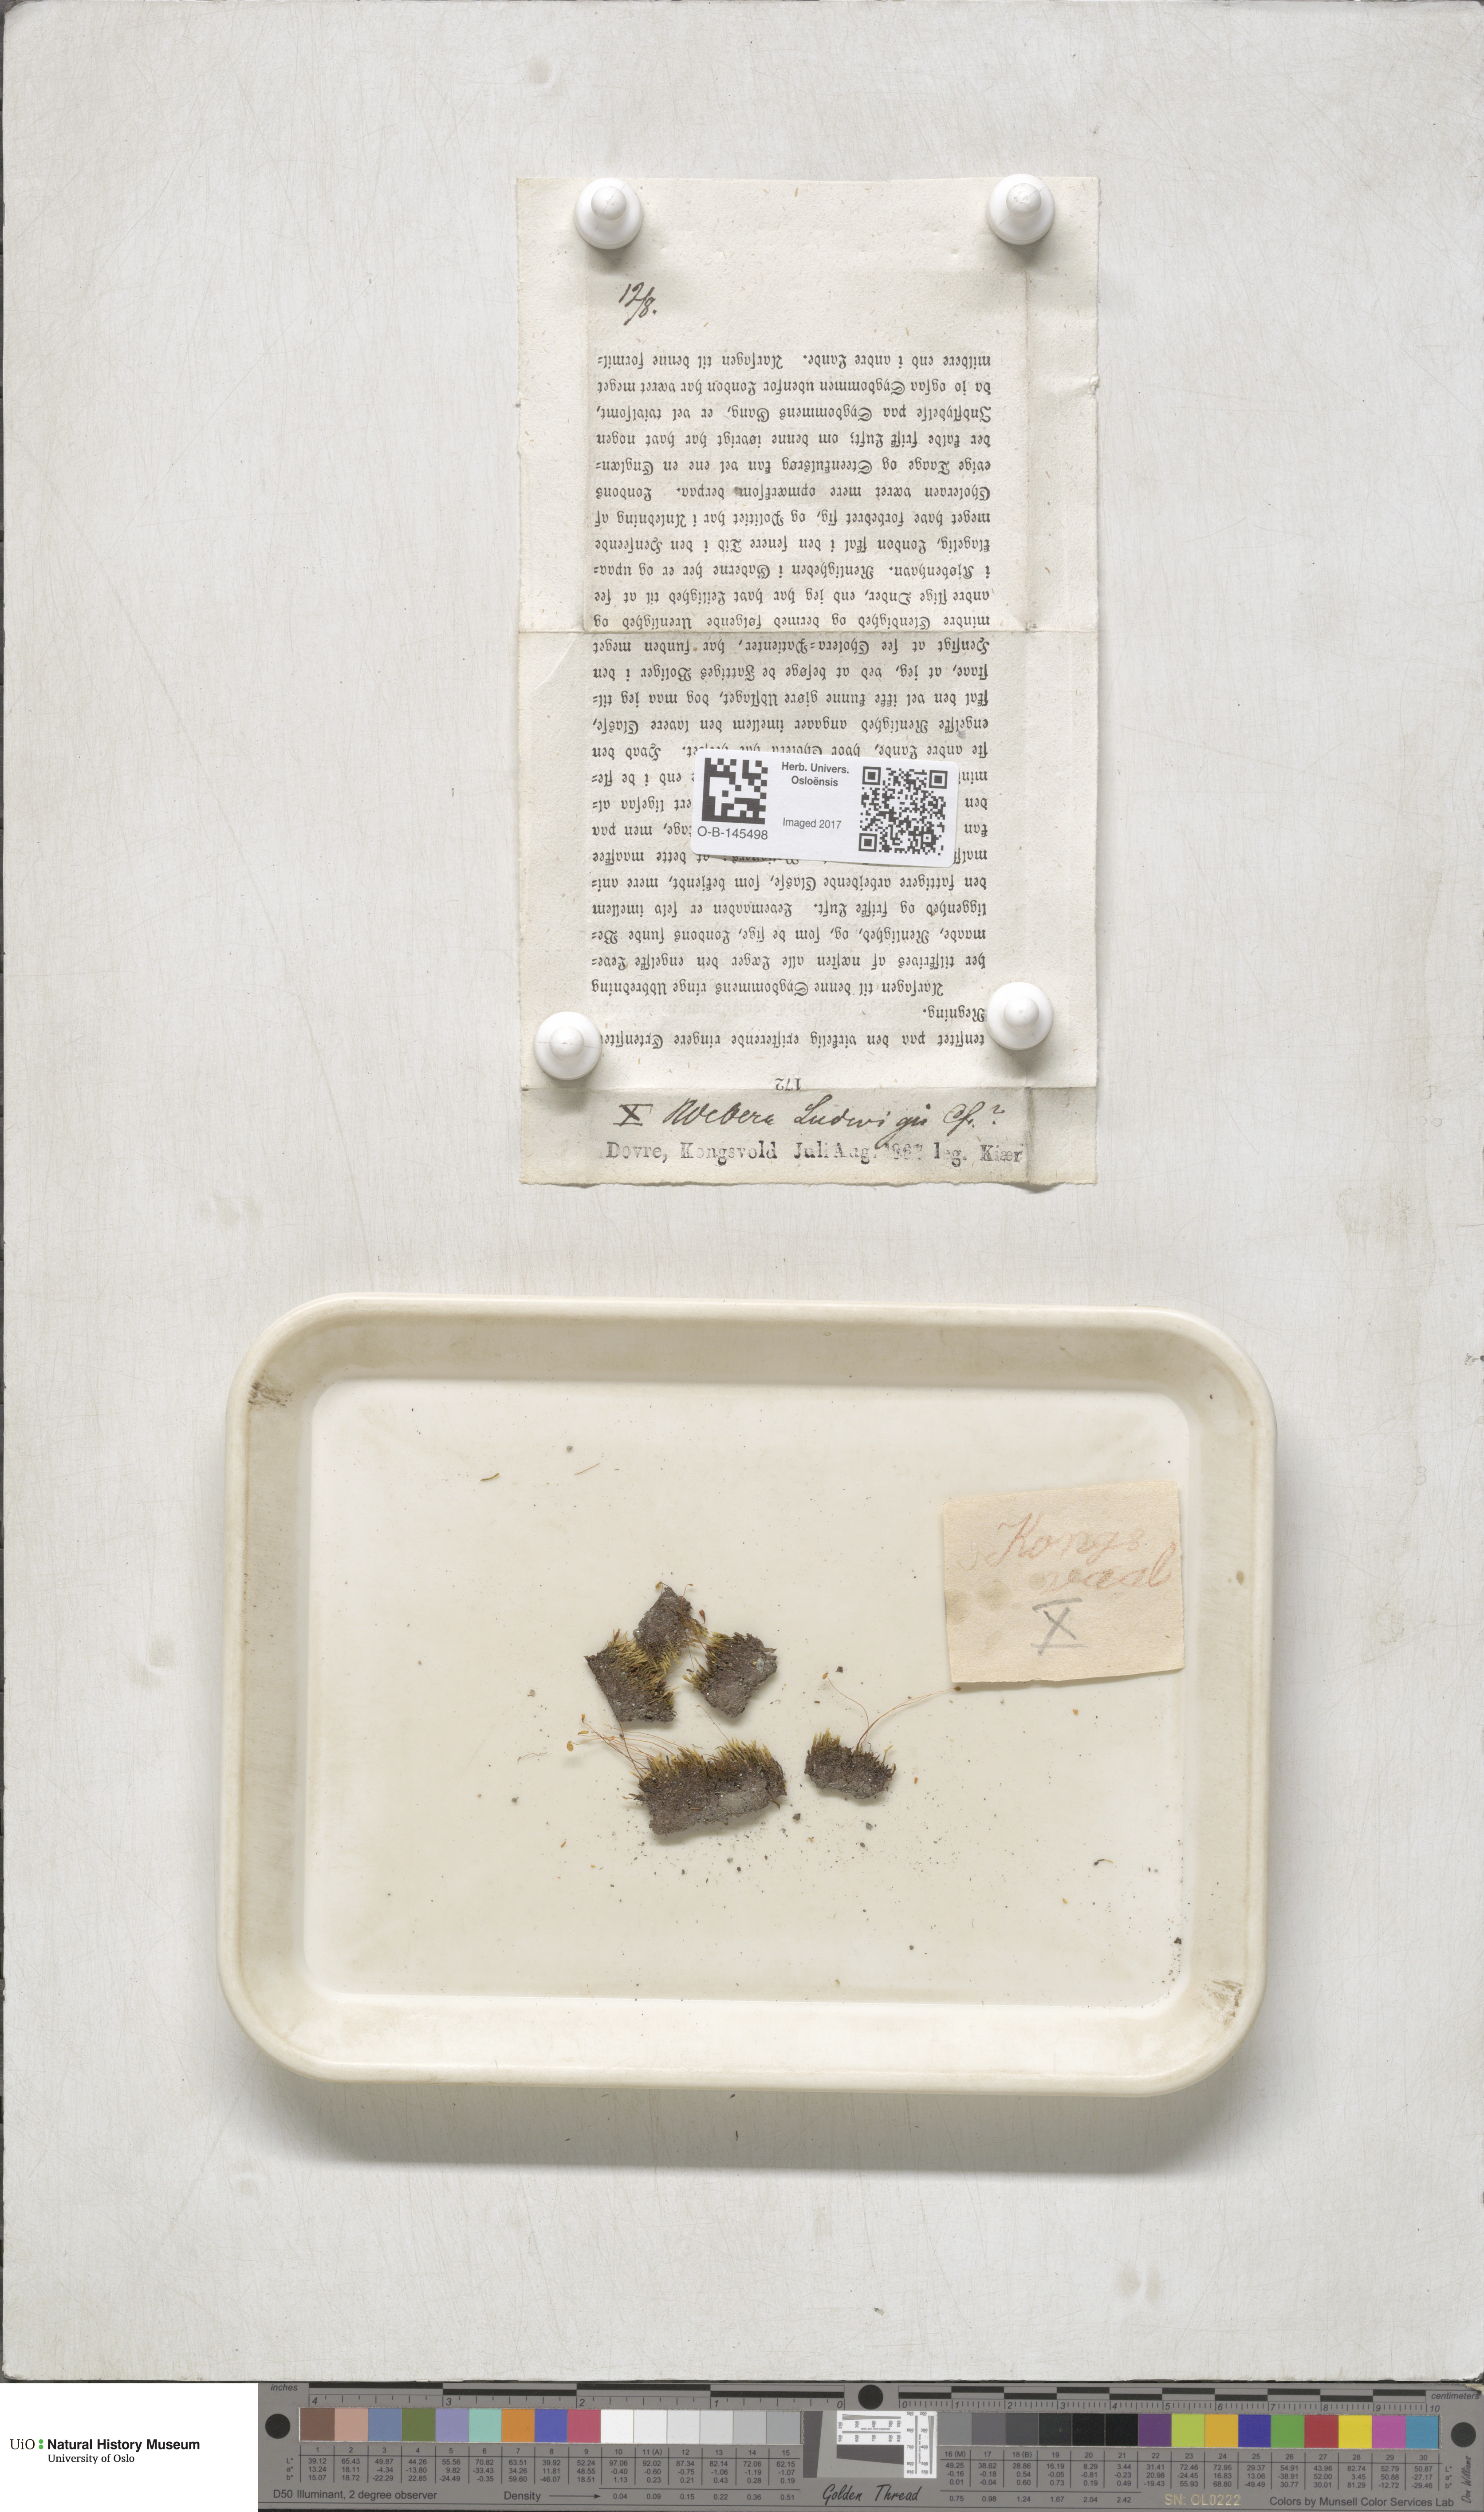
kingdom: Plantae
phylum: Bryophyta
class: Bryopsida
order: Bryales
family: Mniaceae
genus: Pohlia
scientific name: Pohlia ludwigii
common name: Ludwig's thread-moss
